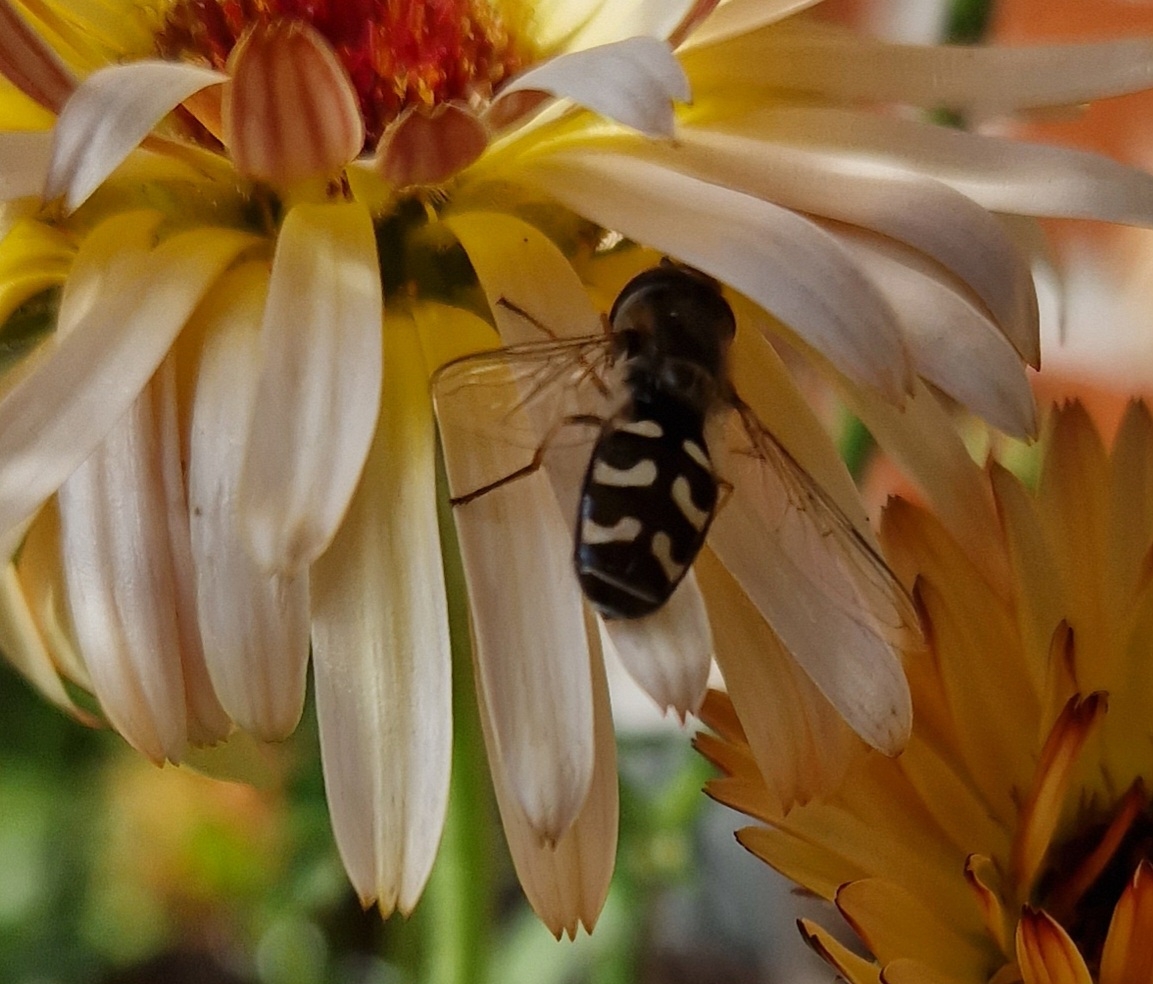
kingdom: Animalia
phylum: Arthropoda
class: Insecta
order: Diptera
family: Syrphidae
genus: Scaeva
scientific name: Scaeva pyrastri
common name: Hvidplettet agersvirreflue
